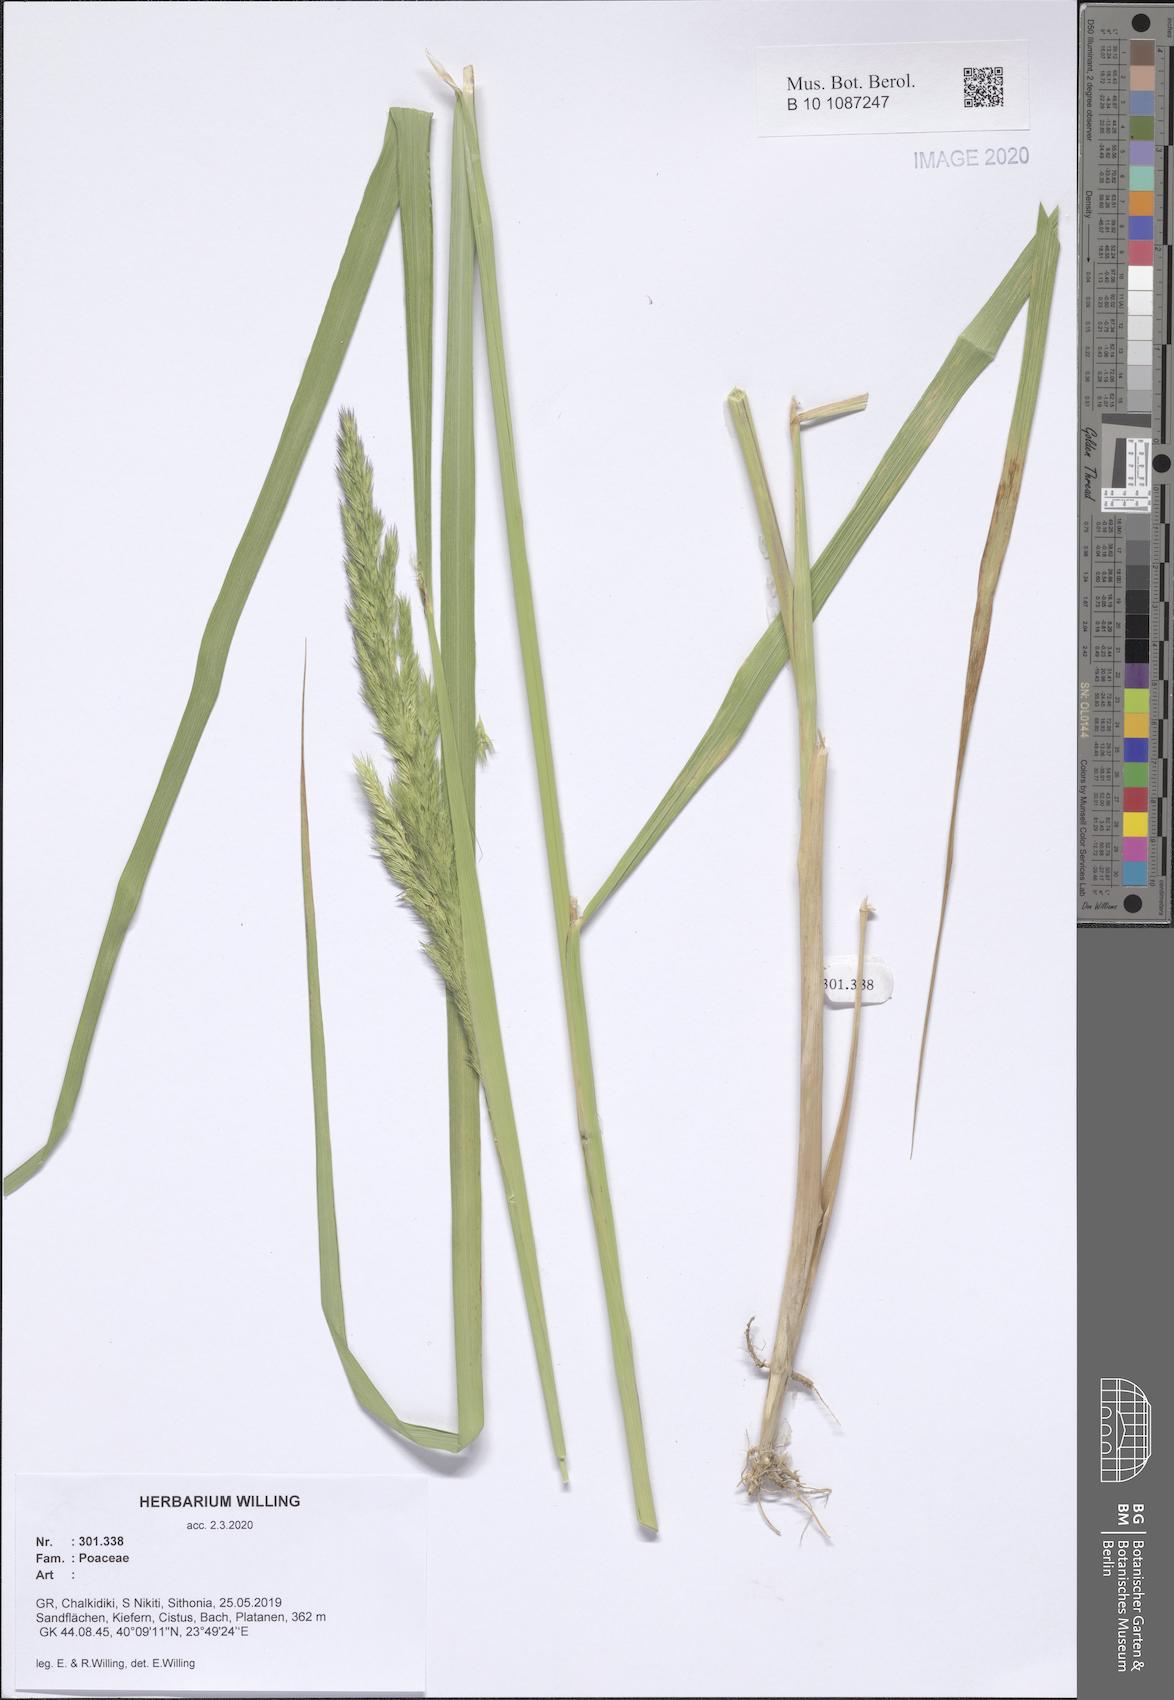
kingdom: Plantae
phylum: Tracheophyta
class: Liliopsida
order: Poales
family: Poaceae
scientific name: Poaceae
